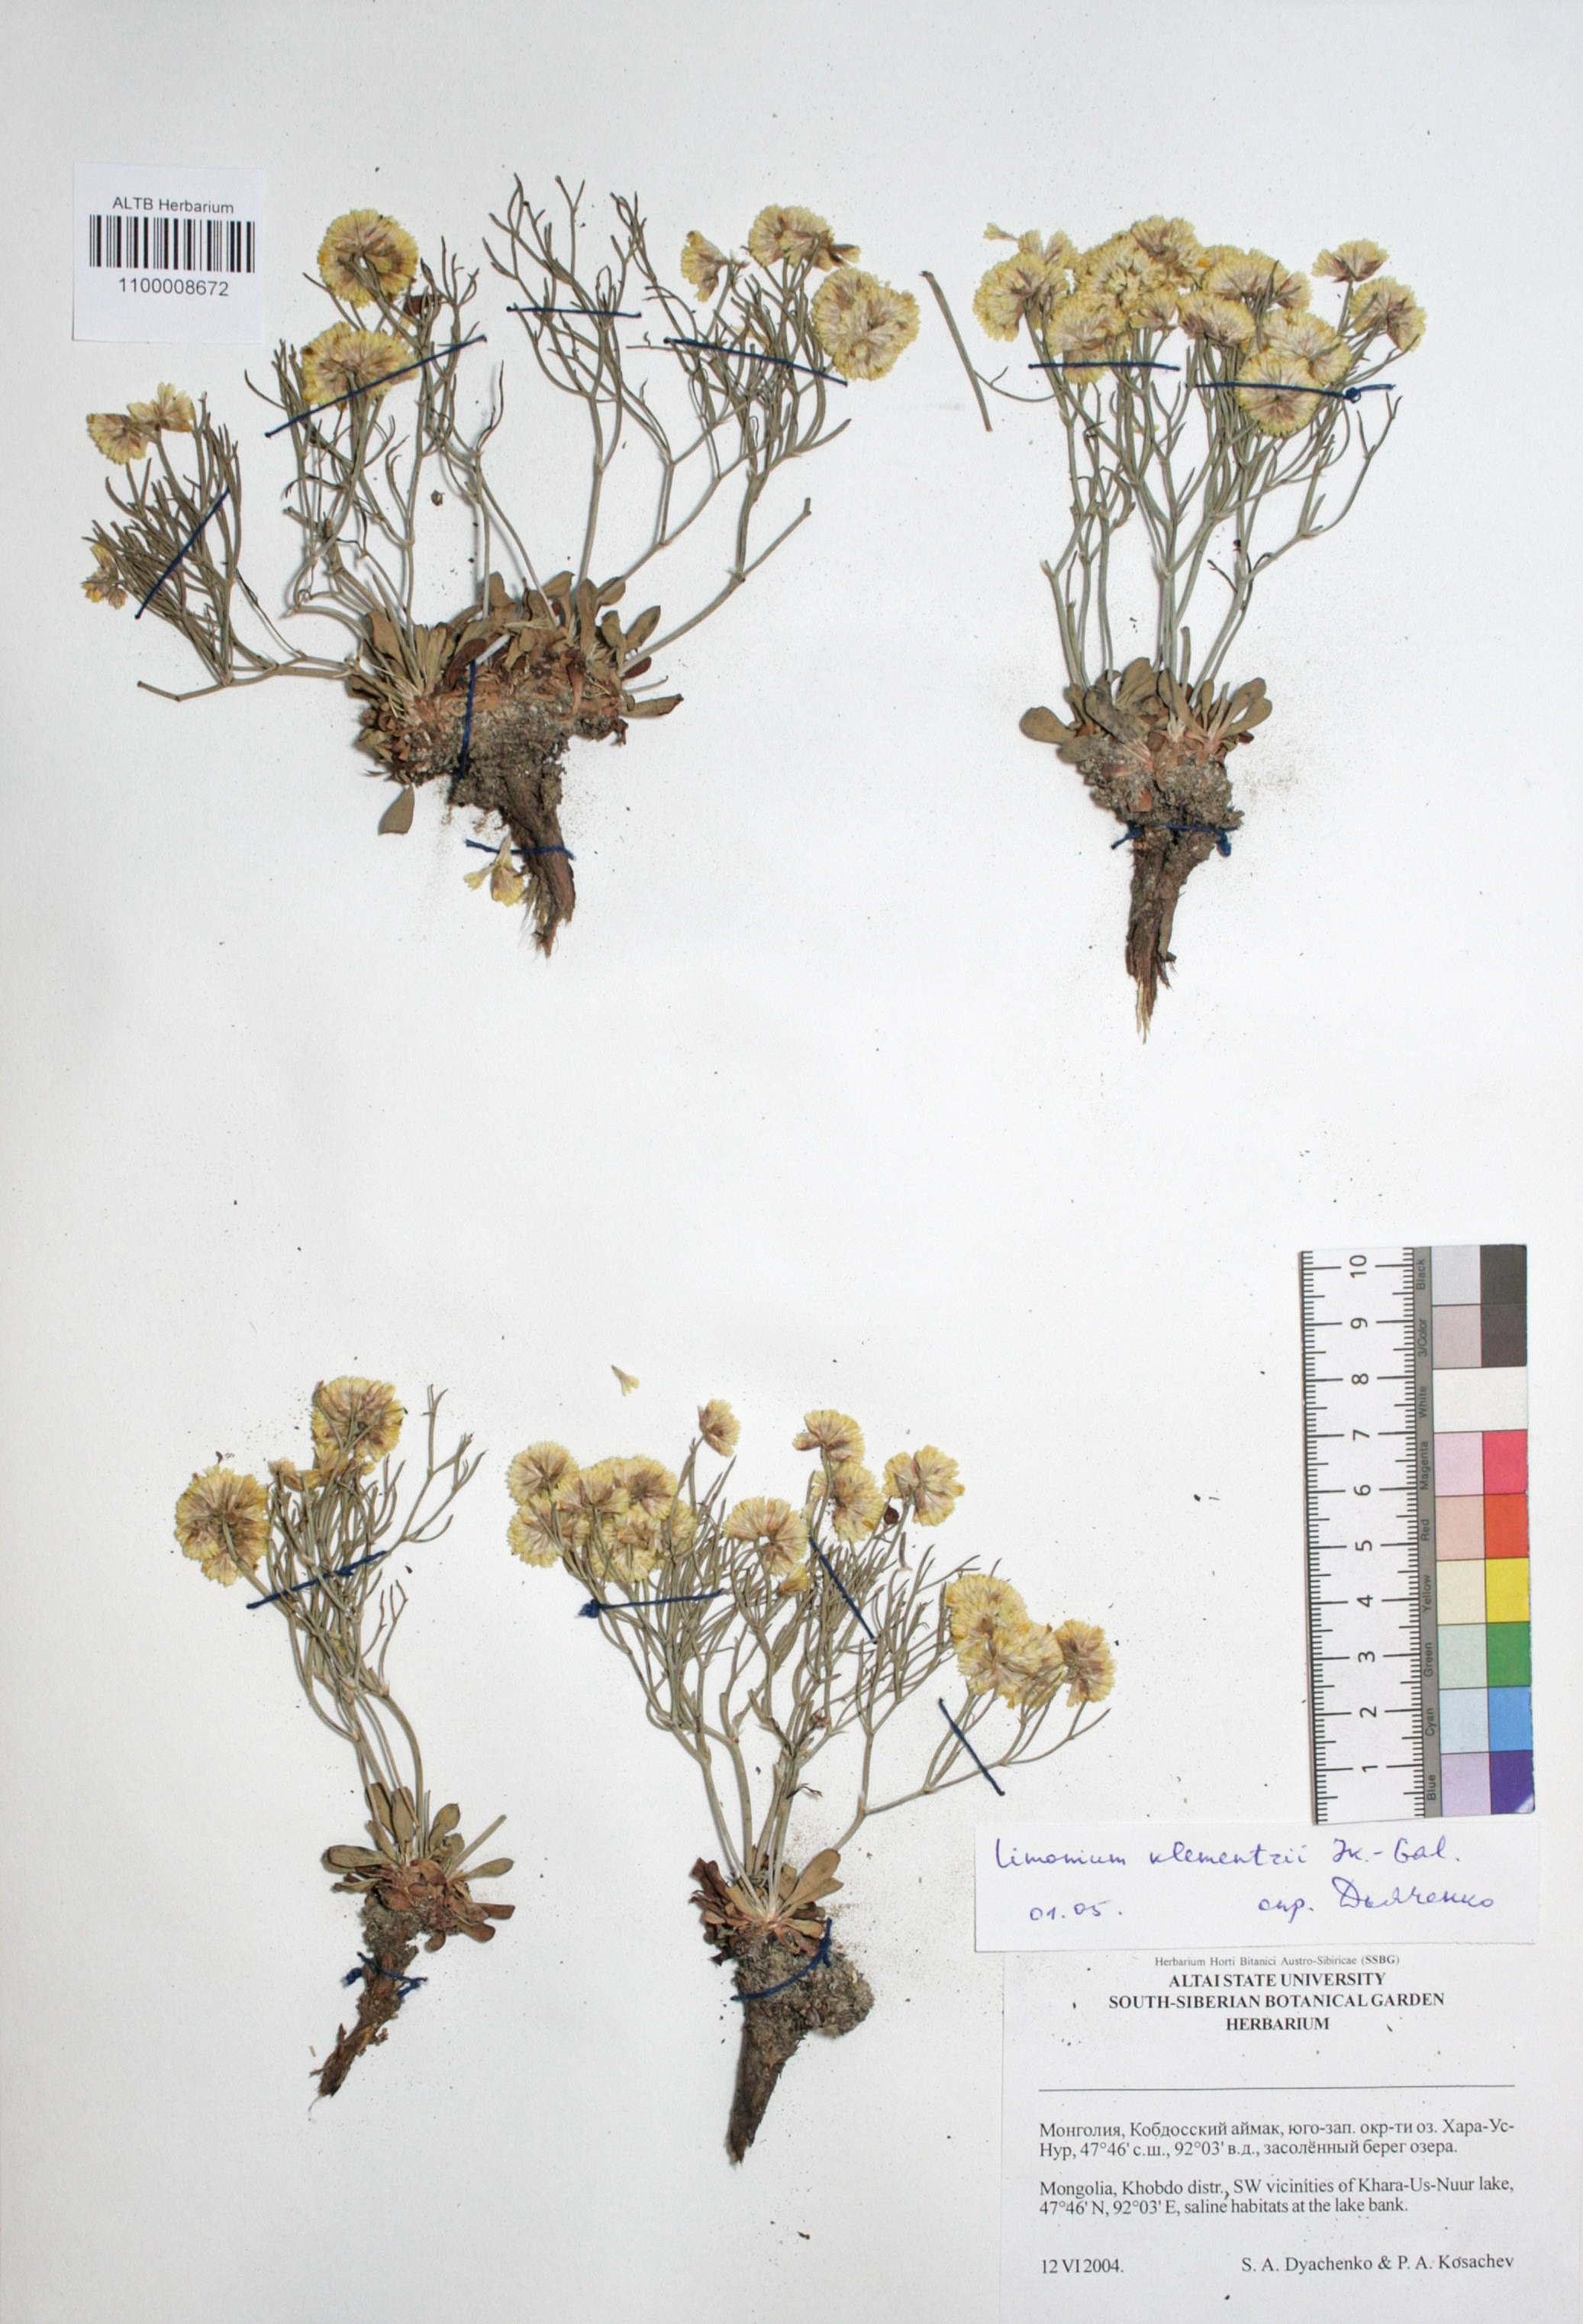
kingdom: Plantae
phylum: Tracheophyta
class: Magnoliopsida
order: Caryophyllales
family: Plumbaginaceae
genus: Limonium
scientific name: Limonium gmelini
